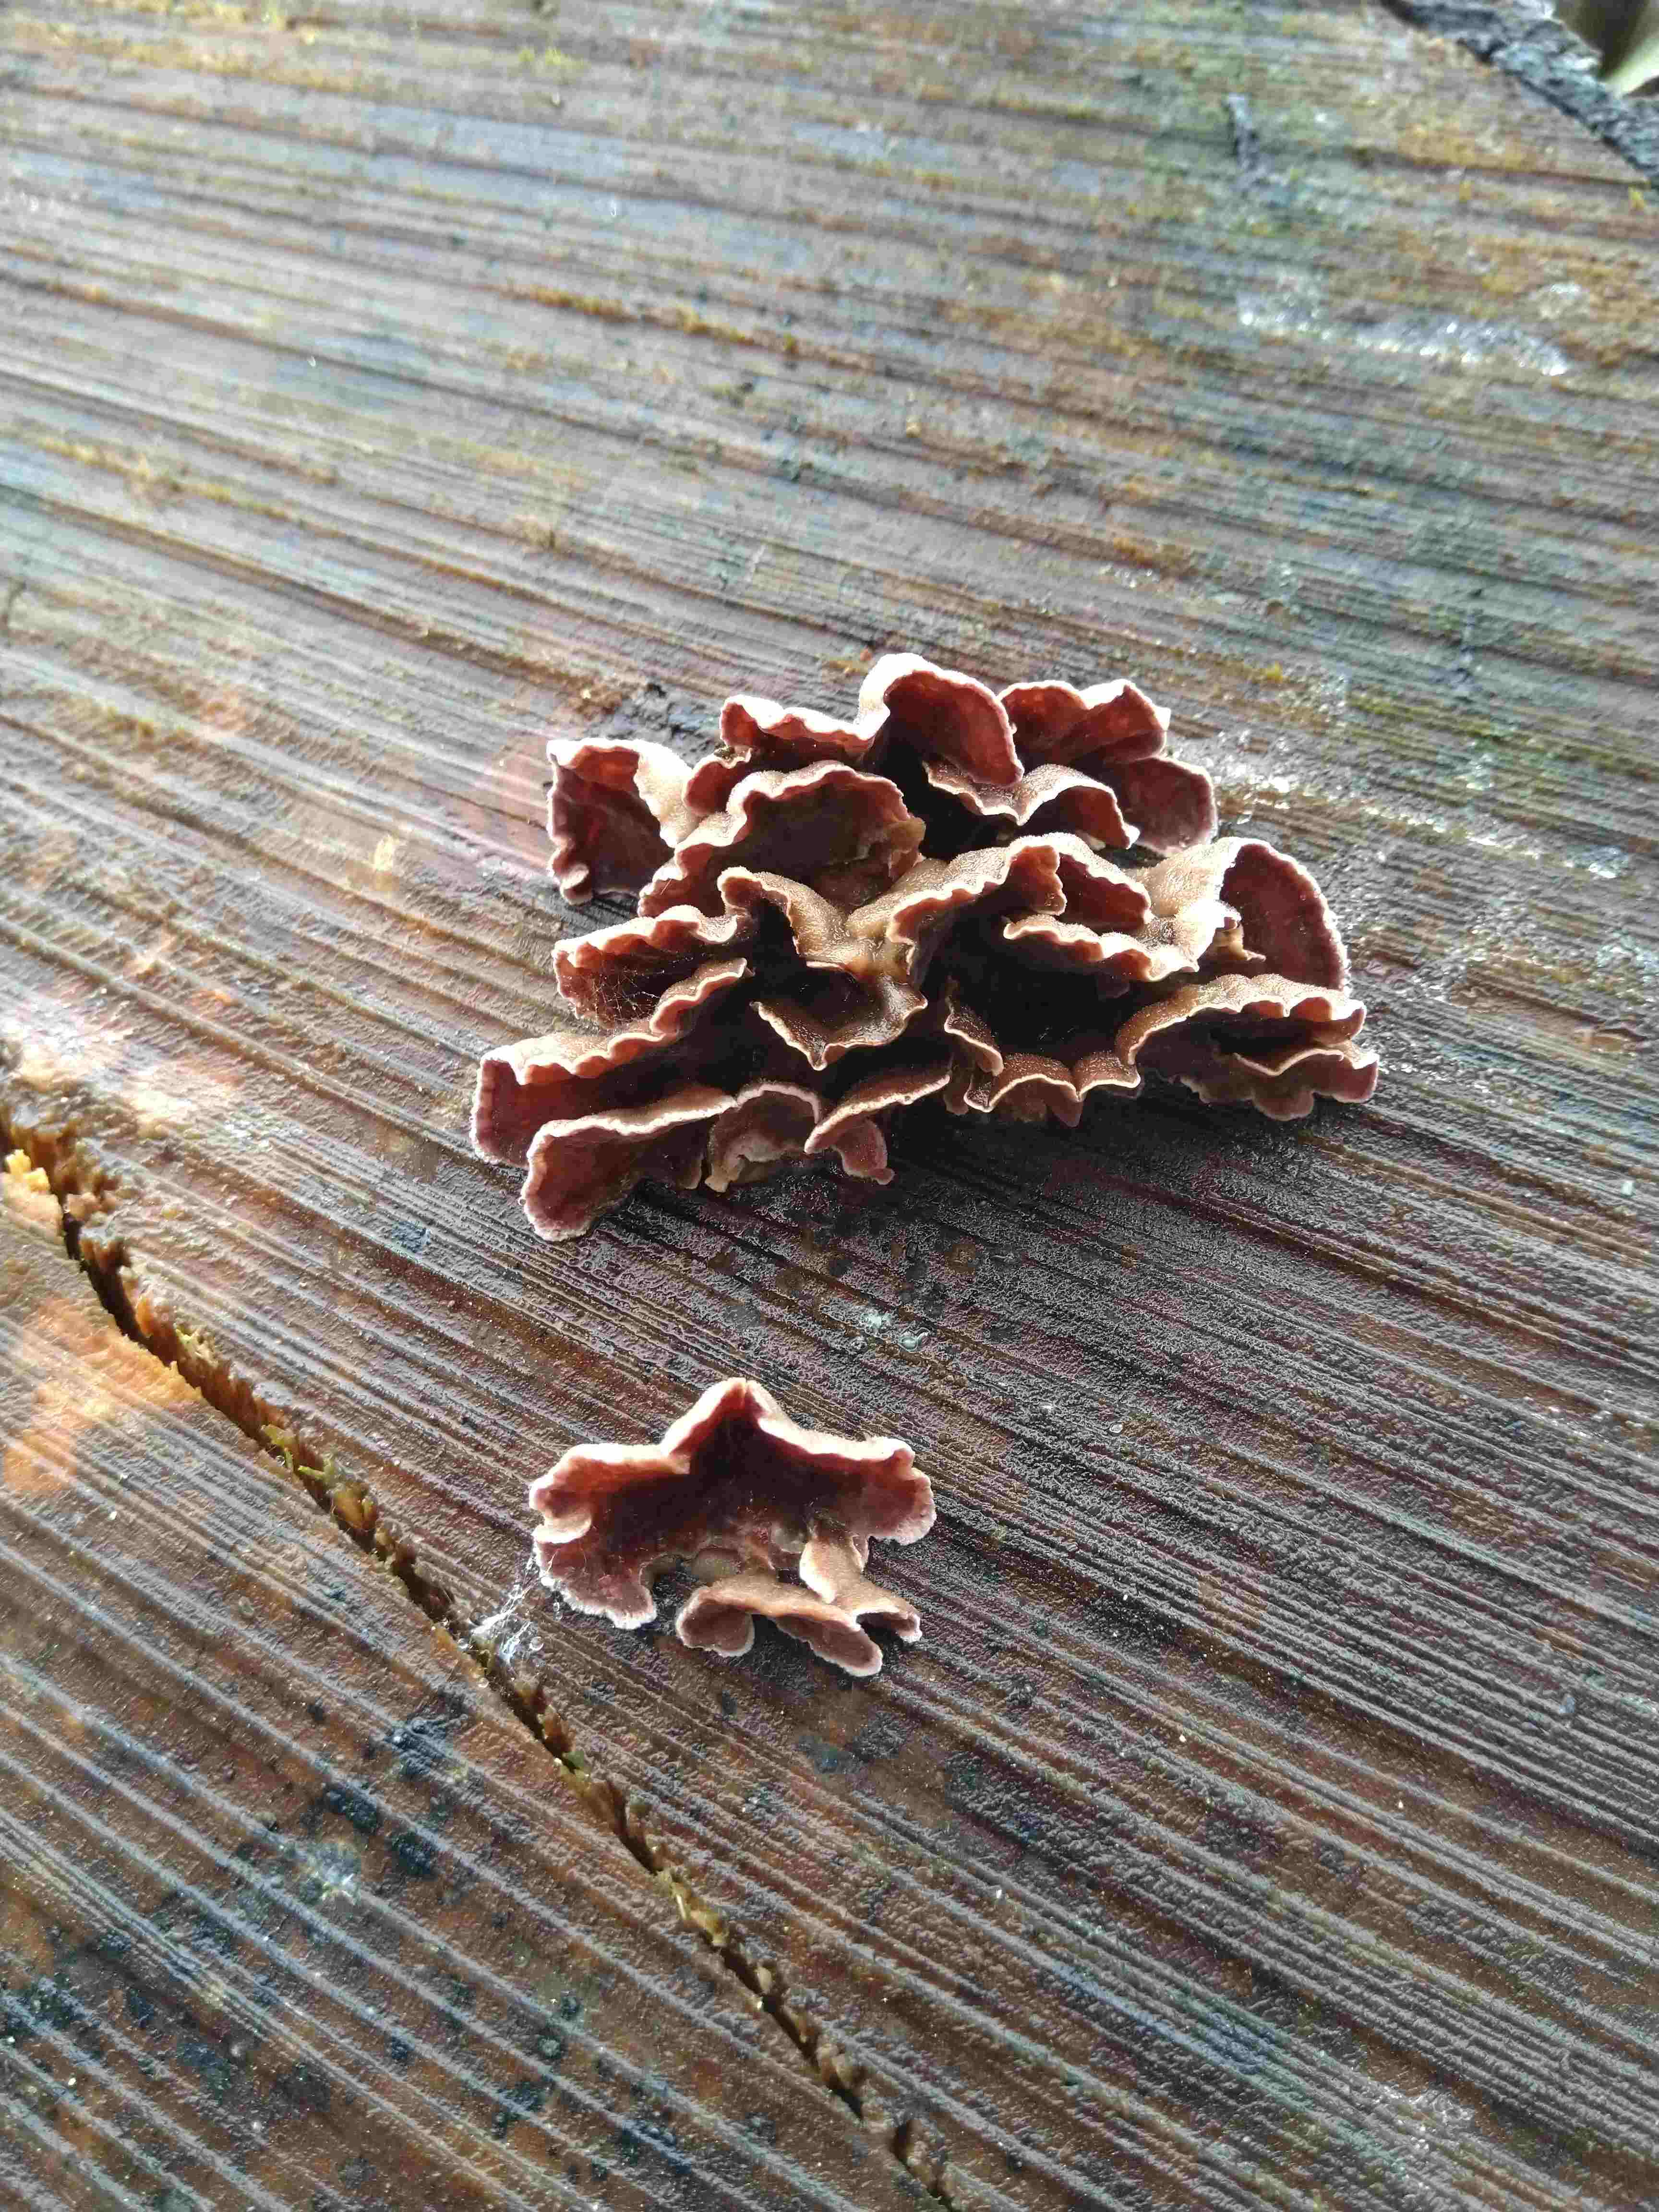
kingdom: Fungi
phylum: Basidiomycota
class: Agaricomycetes
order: Agaricales
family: Cyphellaceae
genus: Chondrostereum
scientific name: Chondrostereum purpureum
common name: purpurlædersvamp
